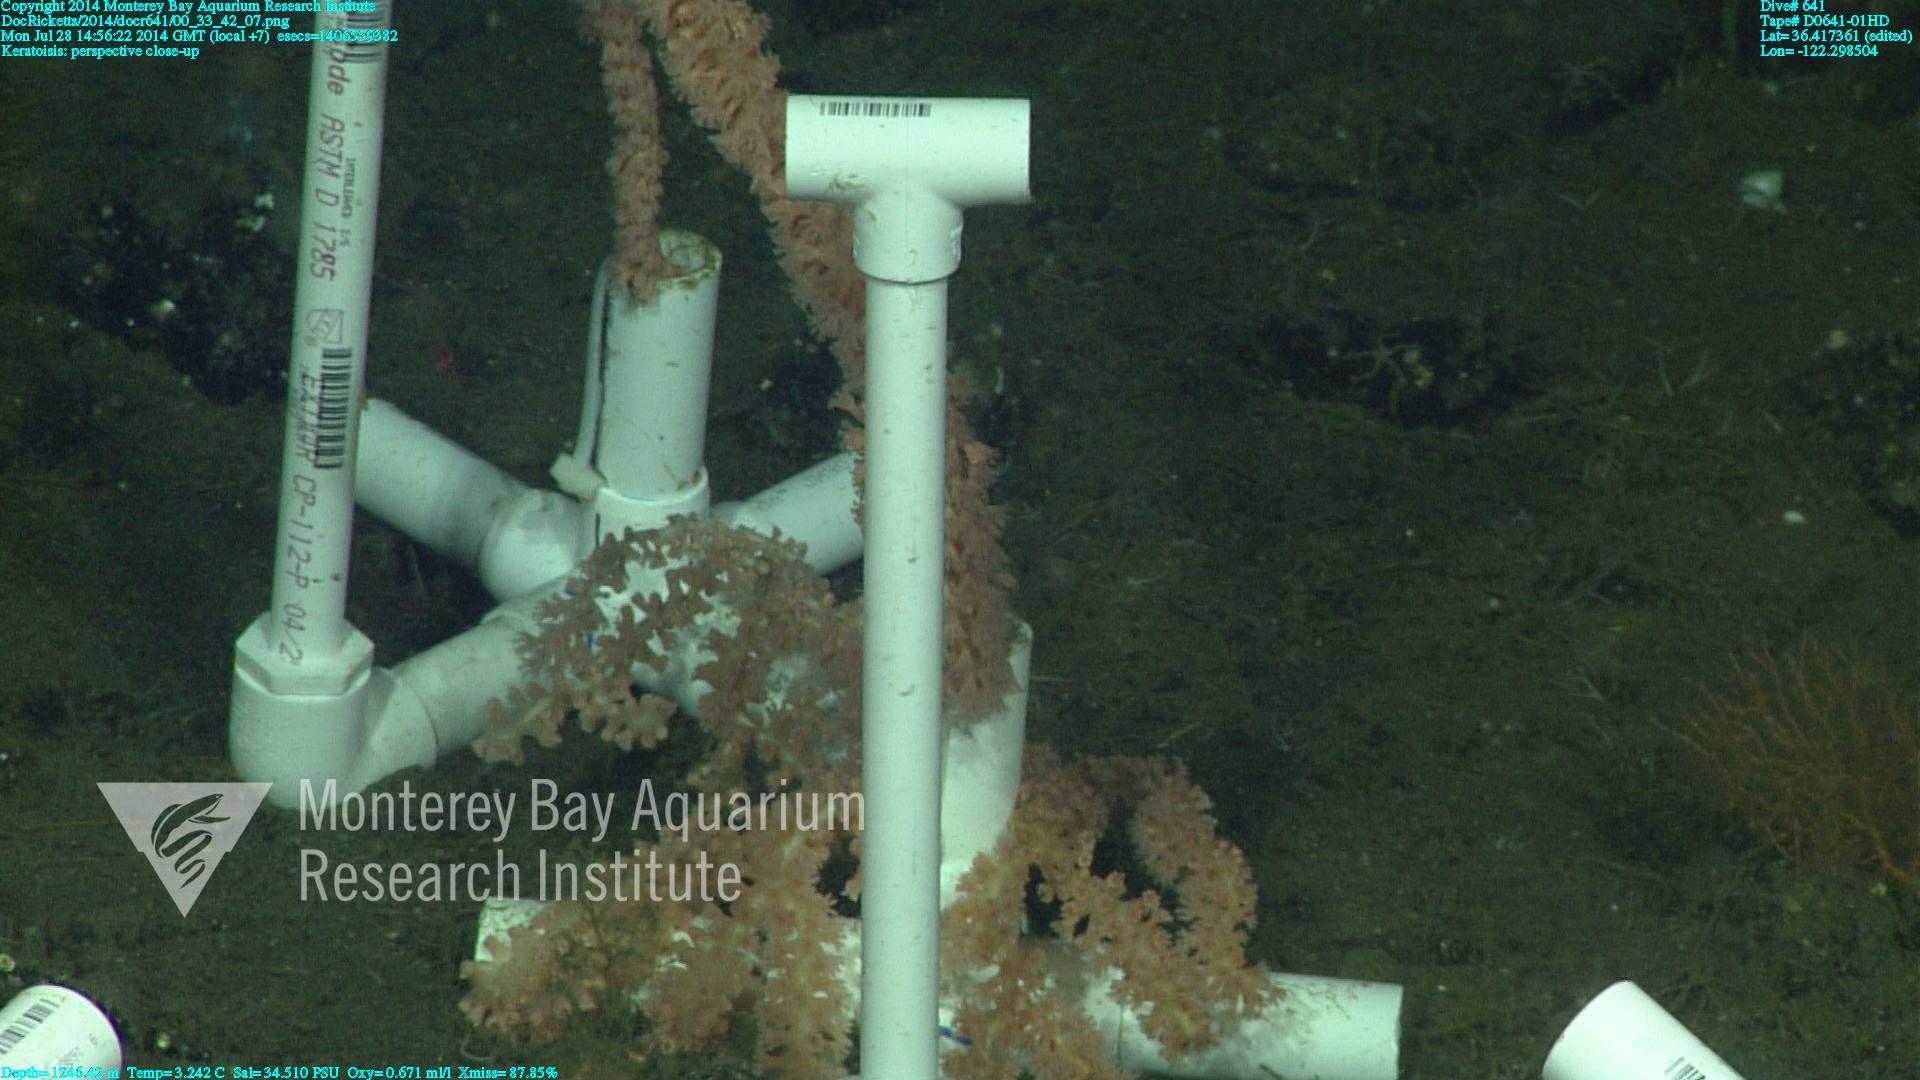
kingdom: Animalia
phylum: Cnidaria
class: Anthozoa
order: Scleralcyonacea
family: Keratoisididae
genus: Keratoisis
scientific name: Keratoisis
